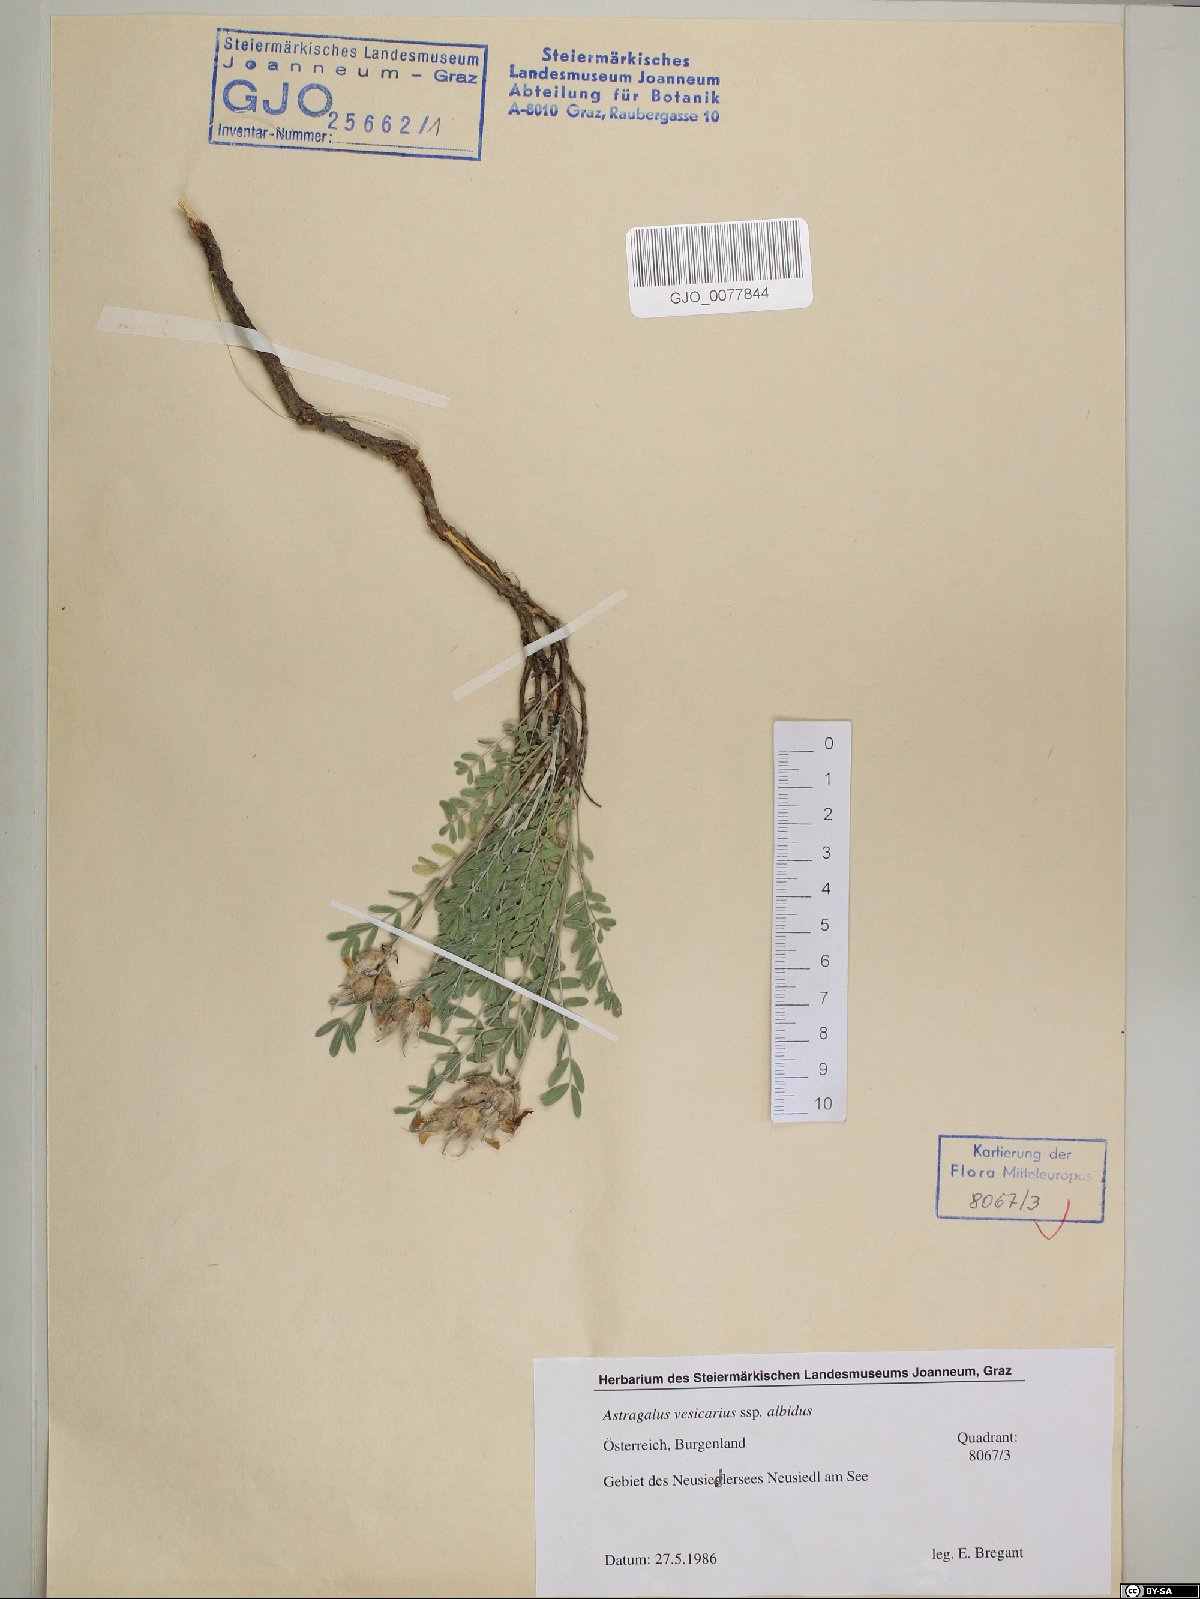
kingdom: Plantae
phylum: Tracheophyta
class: Magnoliopsida
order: Fabales
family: Fabaceae
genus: Astragalus
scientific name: Astragalus vesicarius
